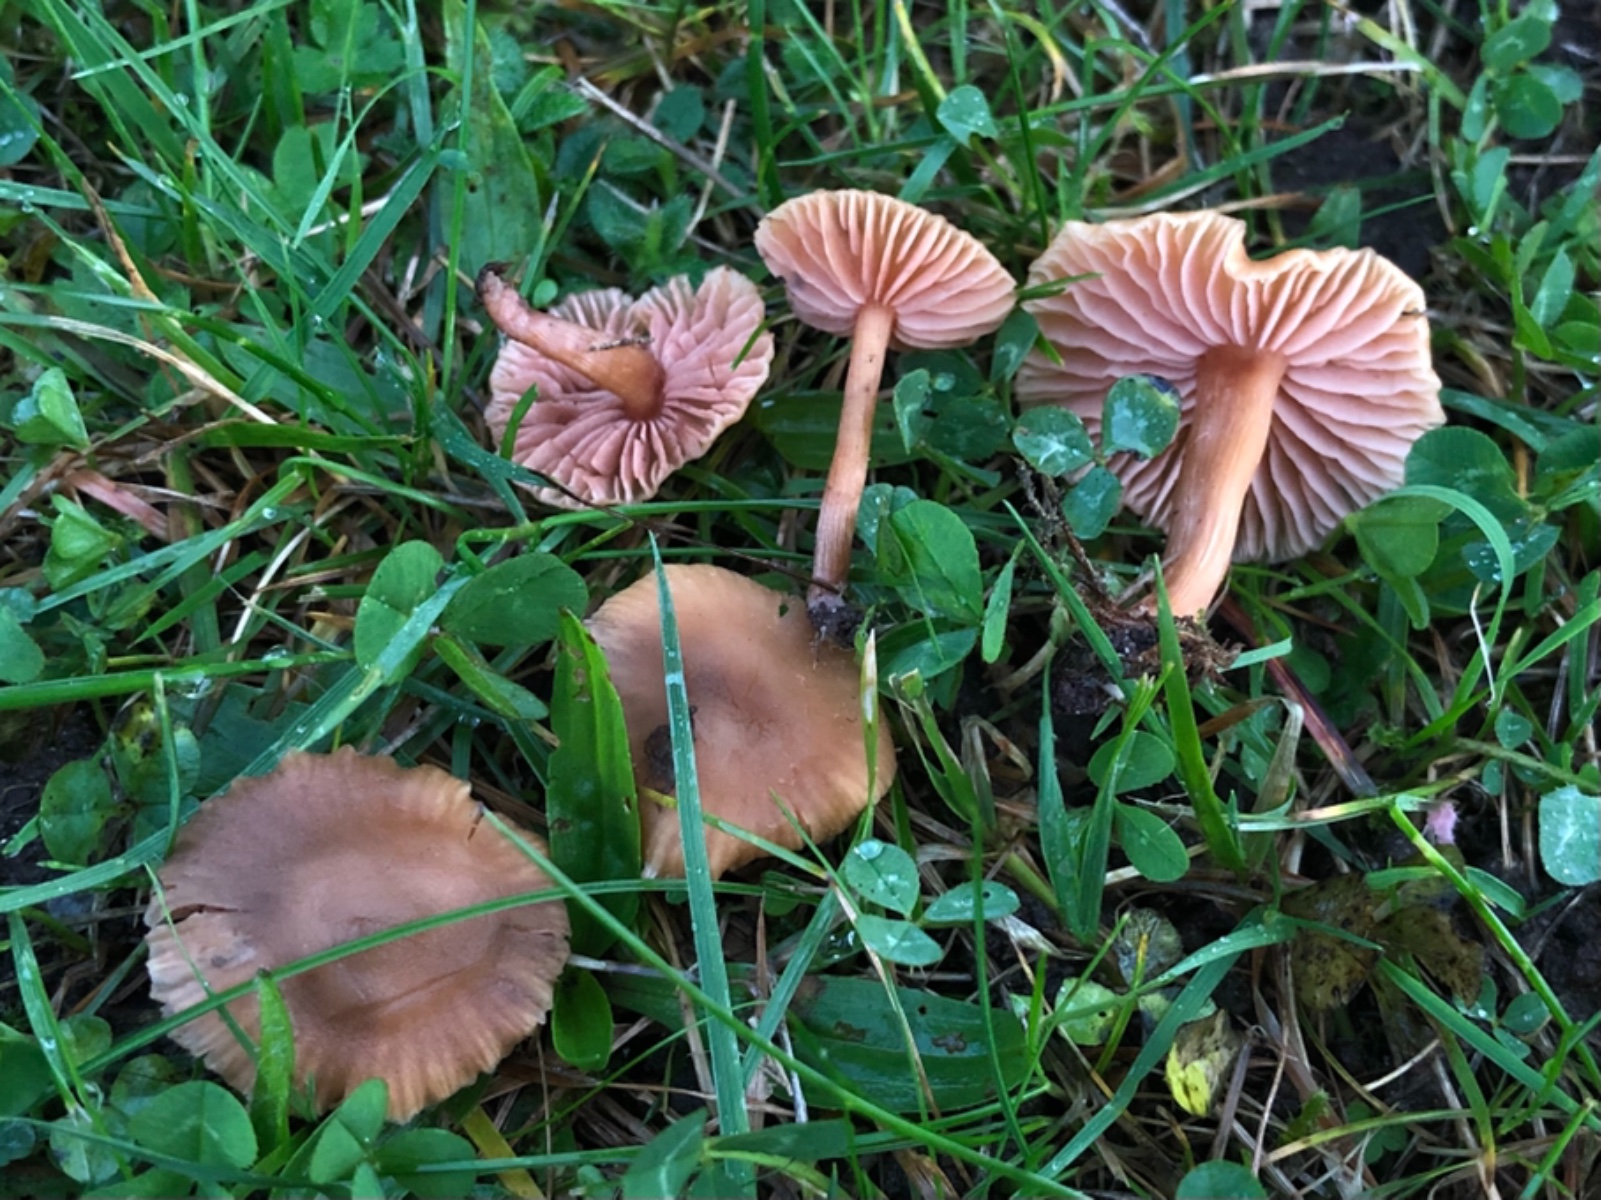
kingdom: Fungi
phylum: Basidiomycota
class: Agaricomycetes
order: Agaricales
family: Hydnangiaceae
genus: Laccaria
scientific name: Laccaria laccata
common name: rød ametysthat
